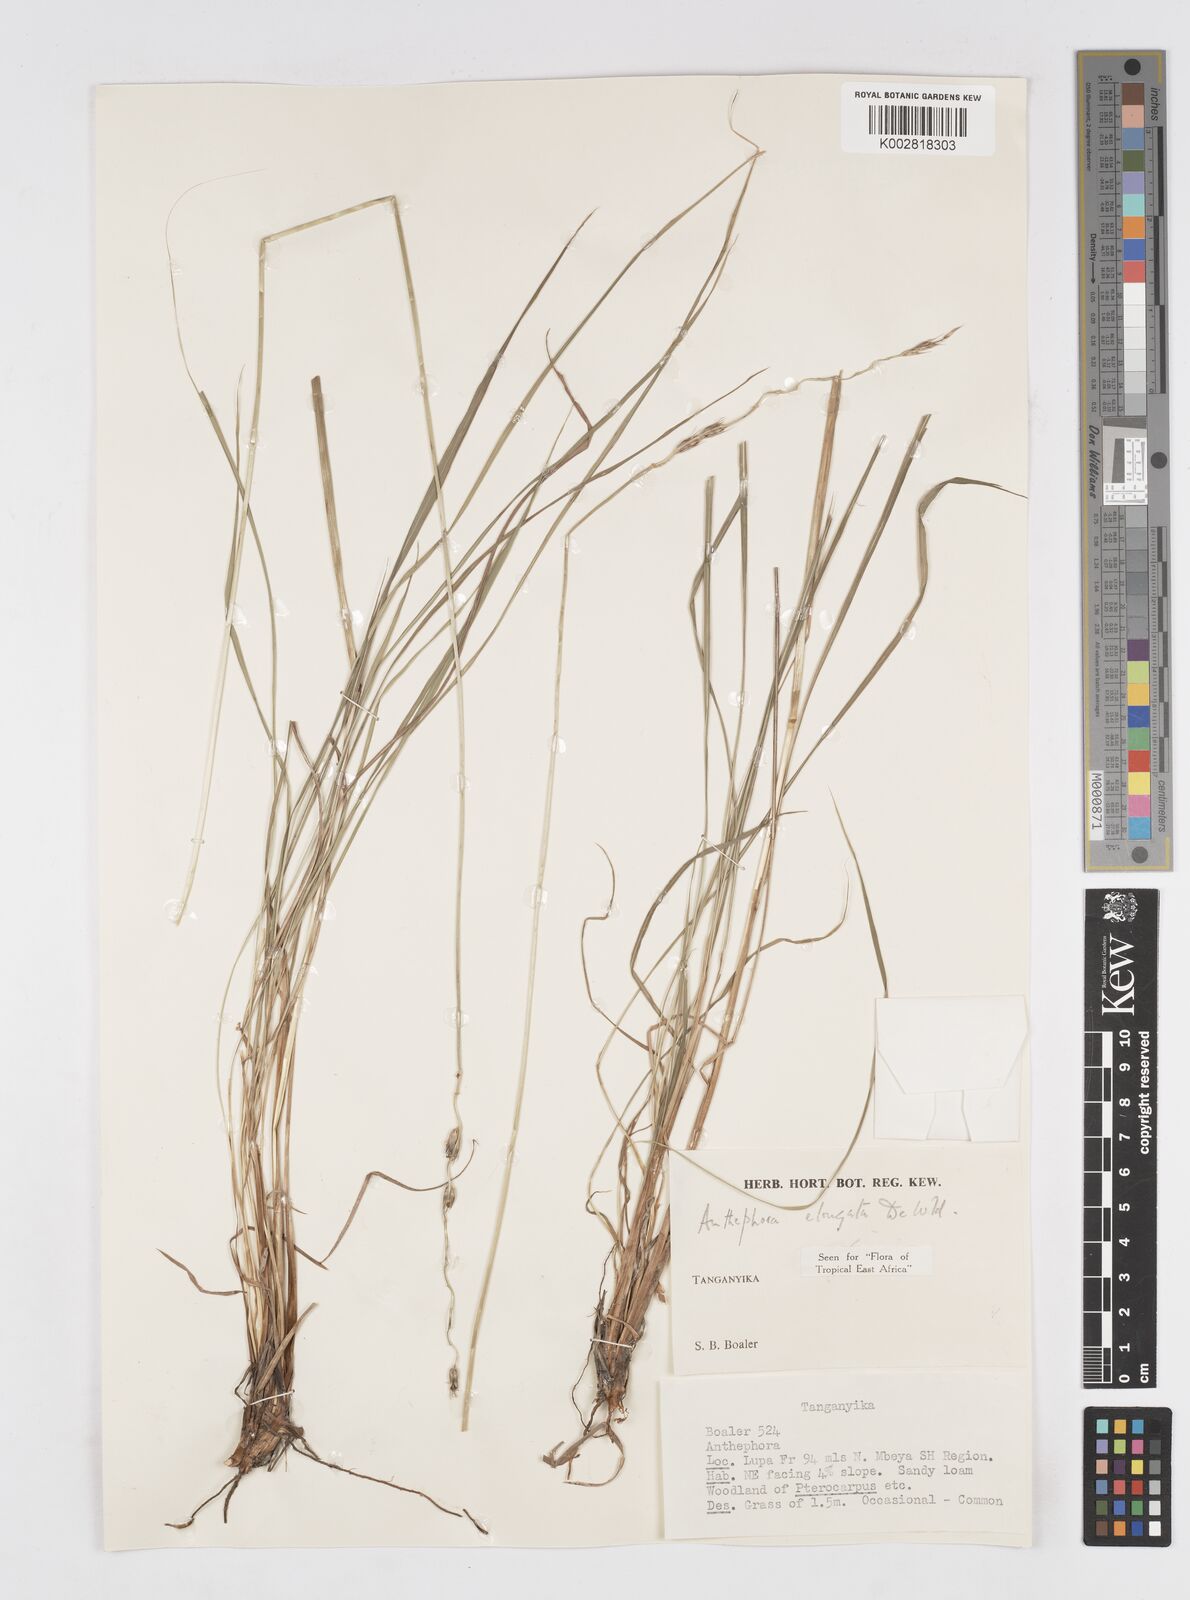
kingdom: Plantae
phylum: Tracheophyta
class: Liliopsida
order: Poales
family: Poaceae
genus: Anthephora
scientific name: Anthephora elongata
